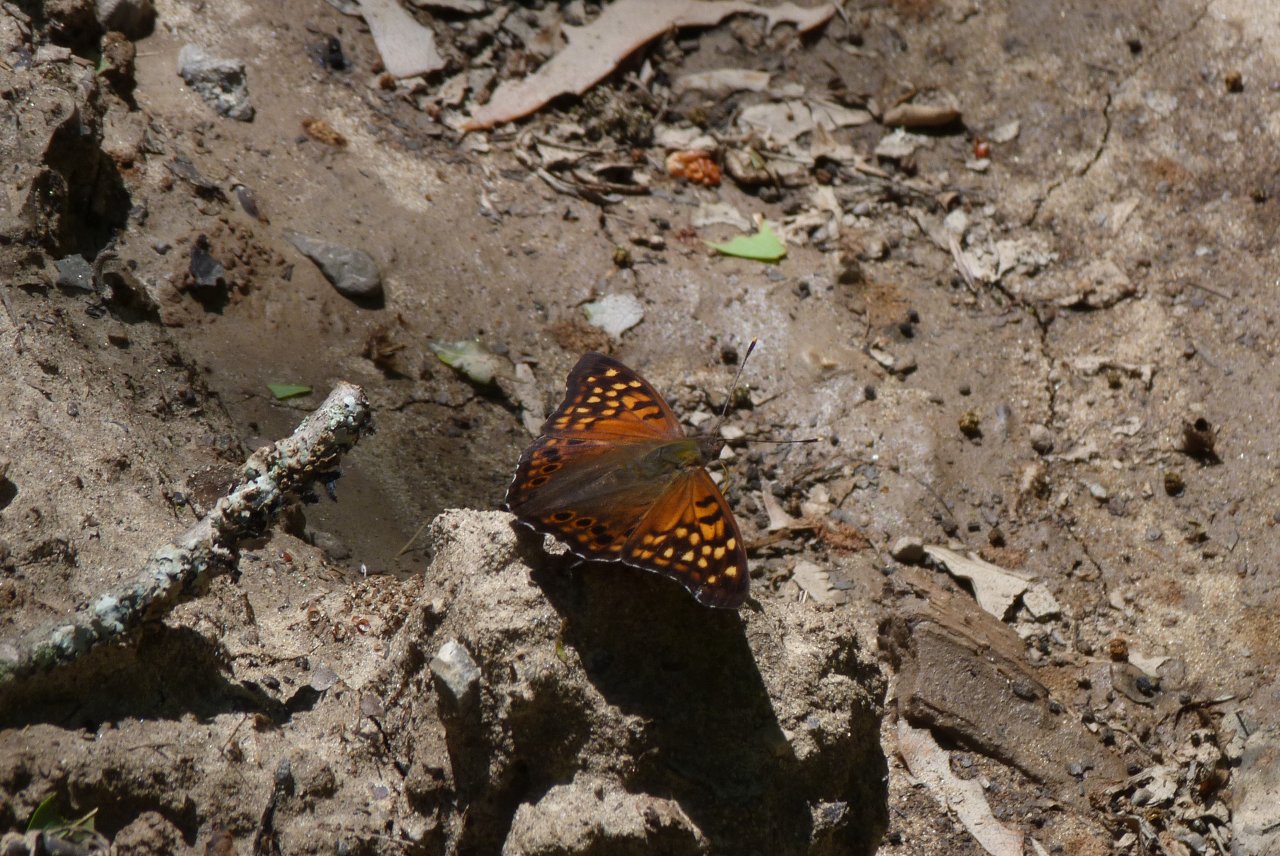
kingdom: Animalia
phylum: Arthropoda
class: Insecta
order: Lepidoptera
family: Nymphalidae
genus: Asterocampa
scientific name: Asterocampa clyton
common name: Tawny Emperor
